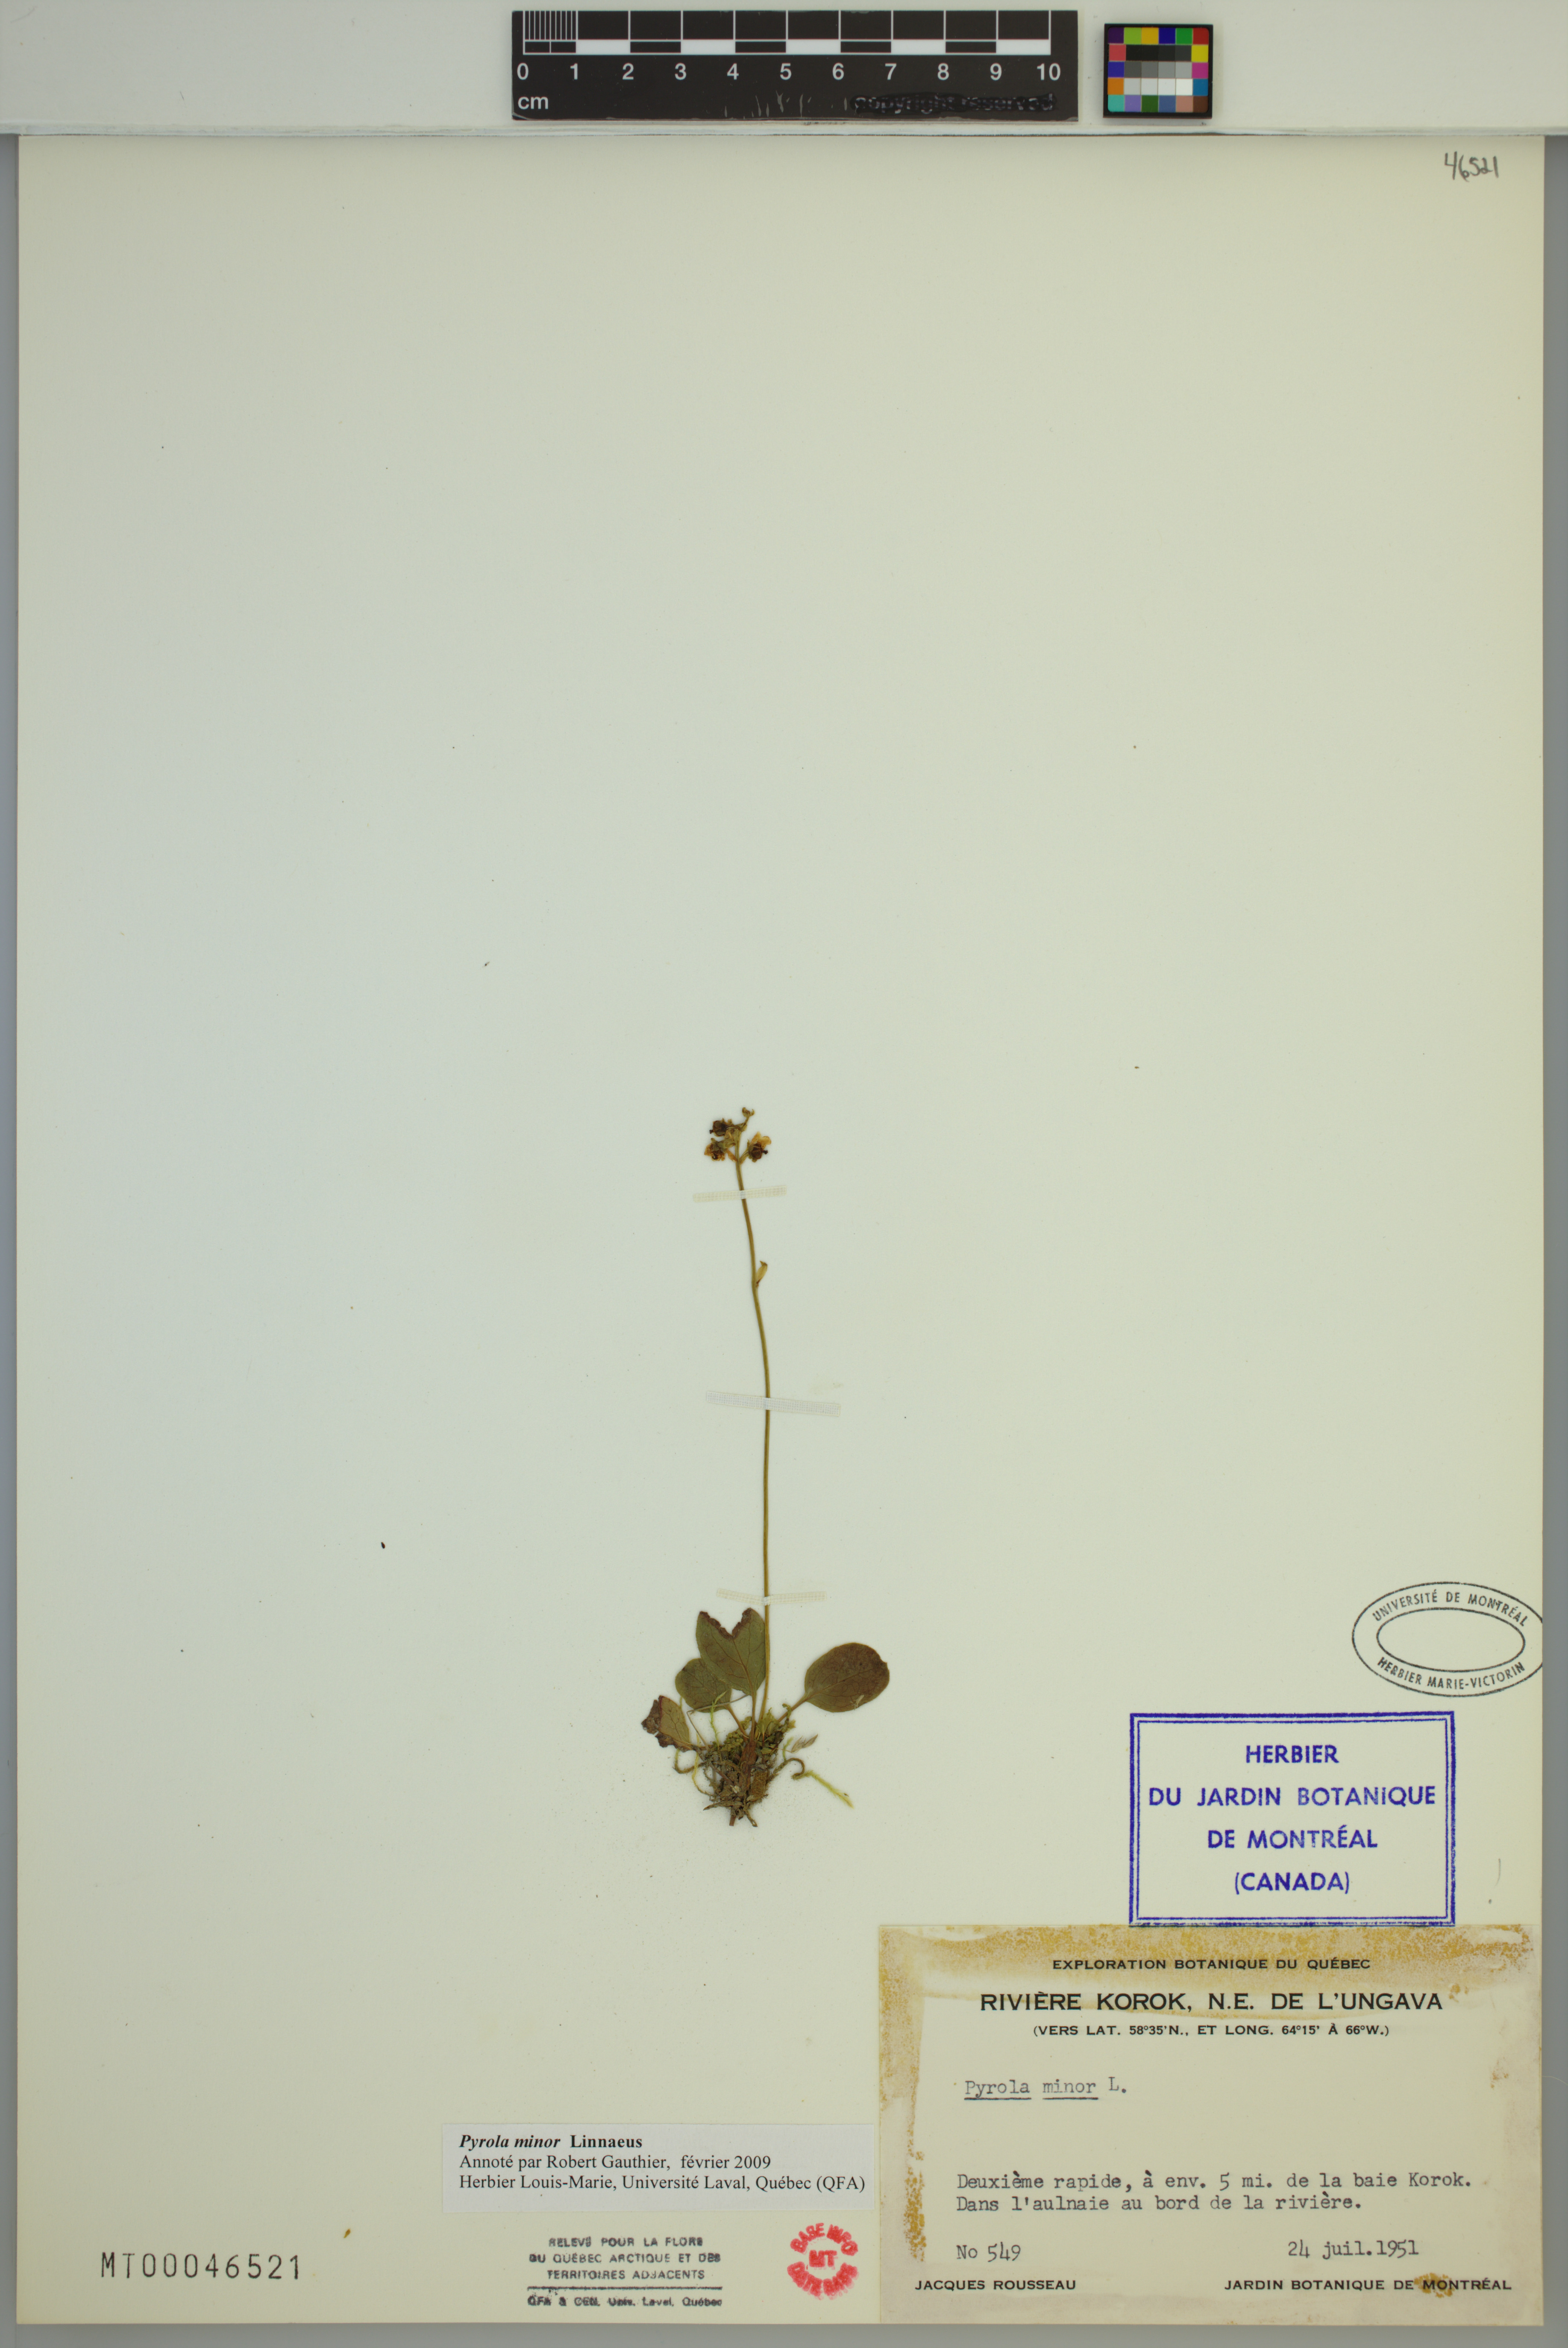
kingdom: Plantae
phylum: Tracheophyta
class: Magnoliopsida
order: Ericales
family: Ericaceae
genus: Pyrola
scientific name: Pyrola minor
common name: Common wintergreen
